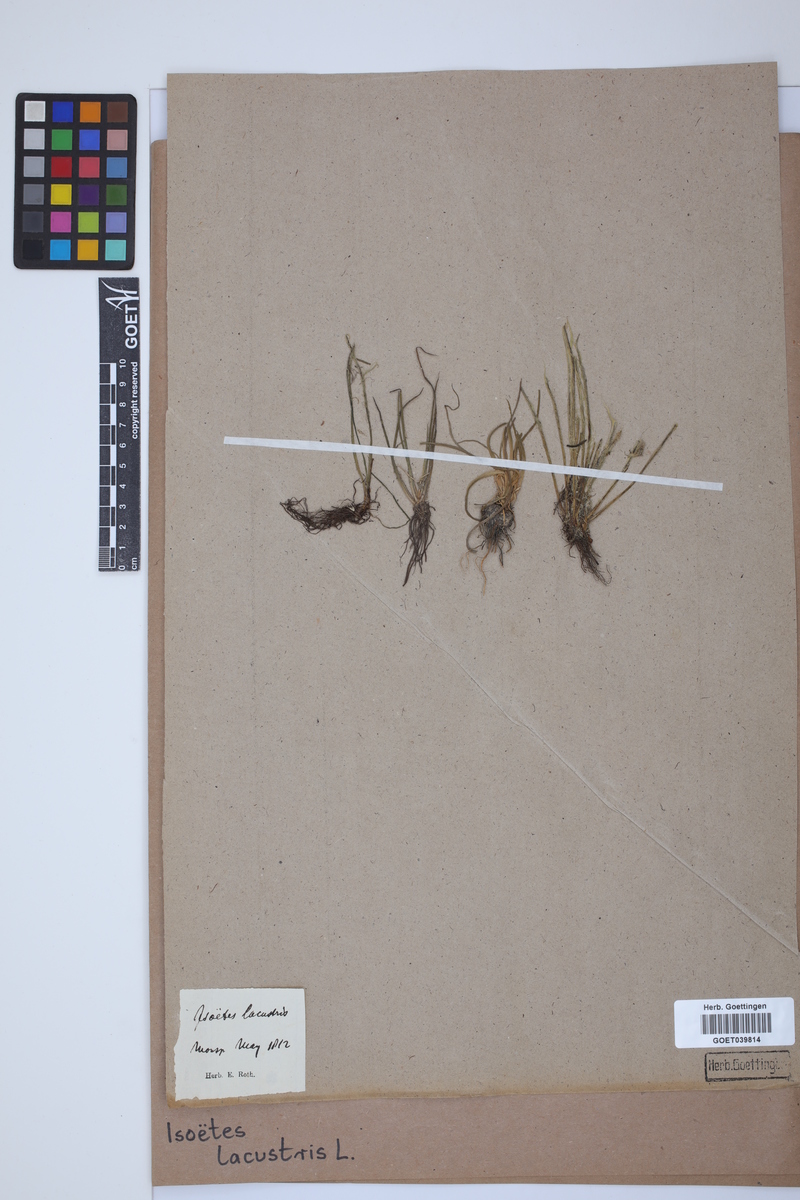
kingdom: Plantae
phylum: Tracheophyta
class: Lycopodiopsida
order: Isoetales
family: Isoetaceae
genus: Isoetes
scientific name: Isoetes lacustris
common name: Common quillwort
